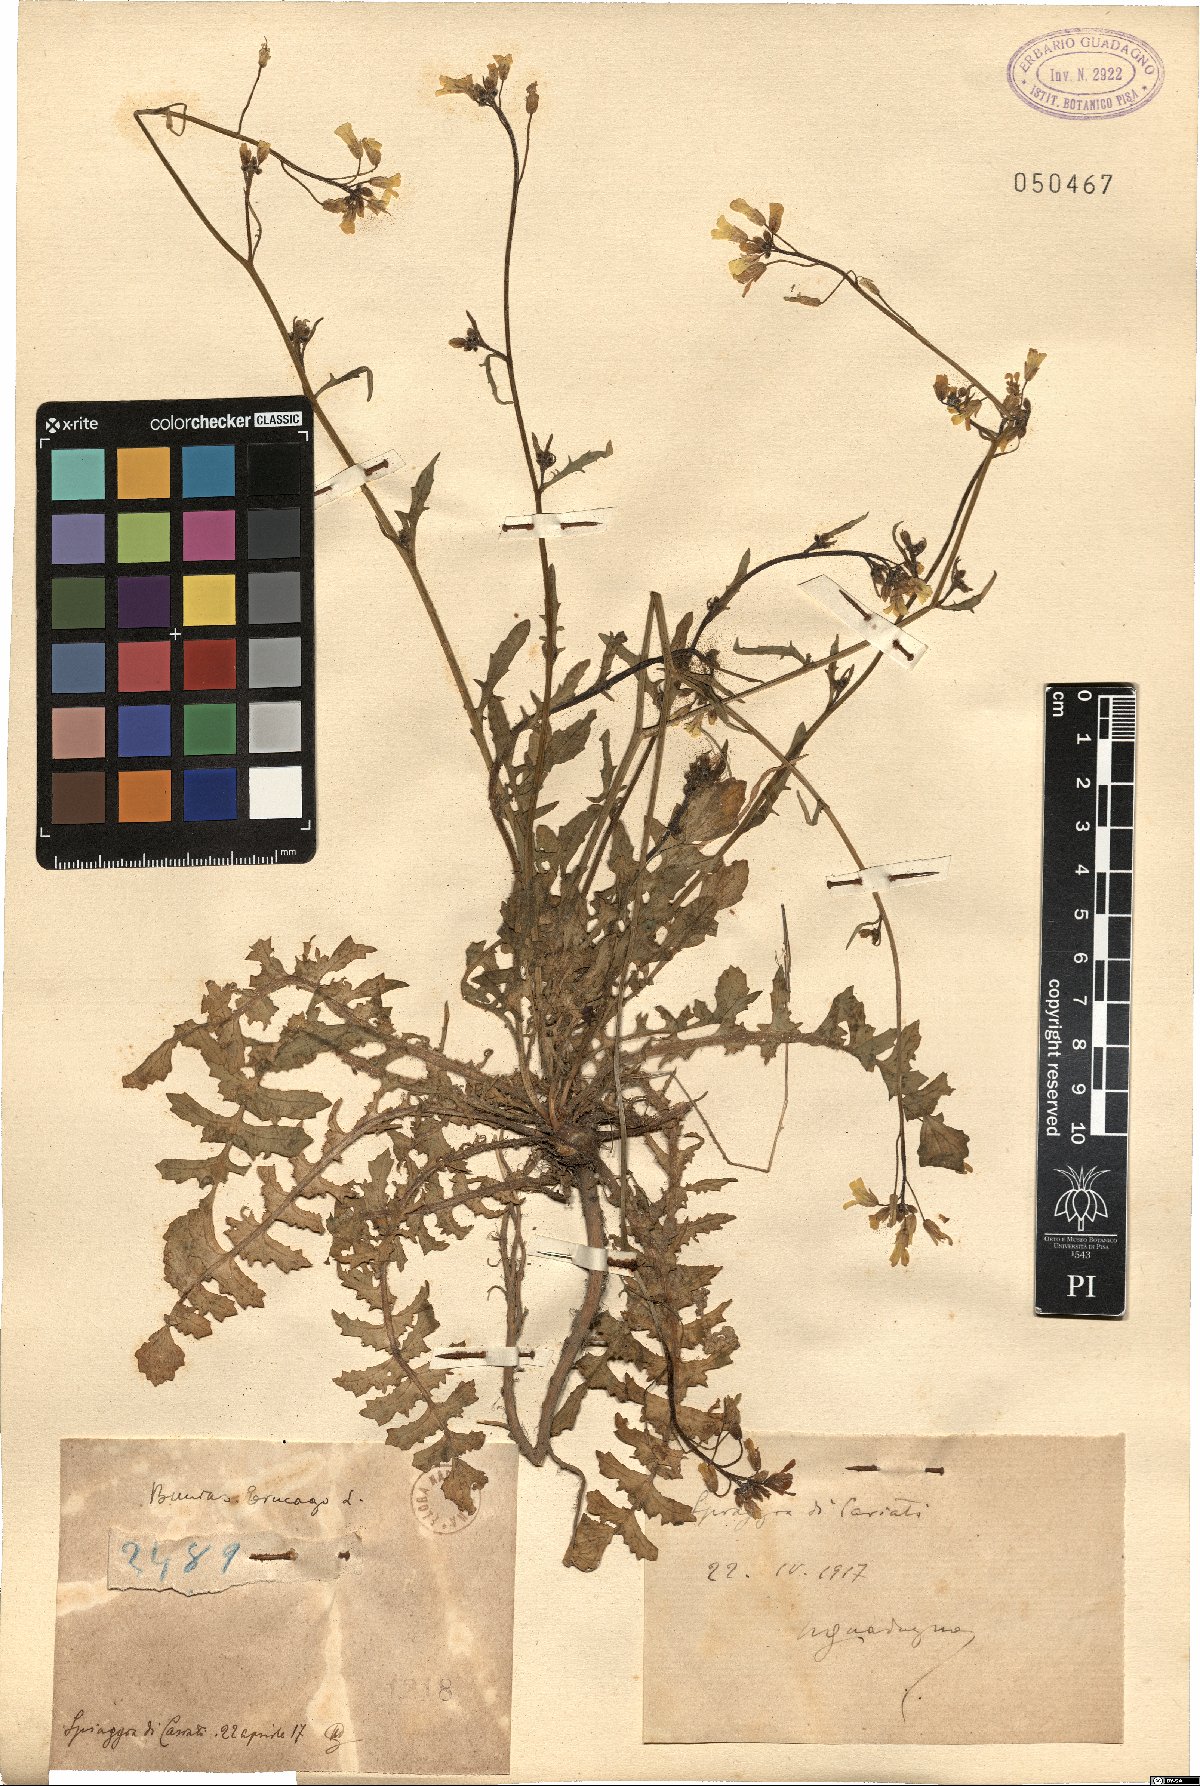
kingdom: Plantae
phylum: Tracheophyta
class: Magnoliopsida
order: Brassicales
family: Brassicaceae
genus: Bunias
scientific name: Bunias erucago
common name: Southern warty-cabbage
